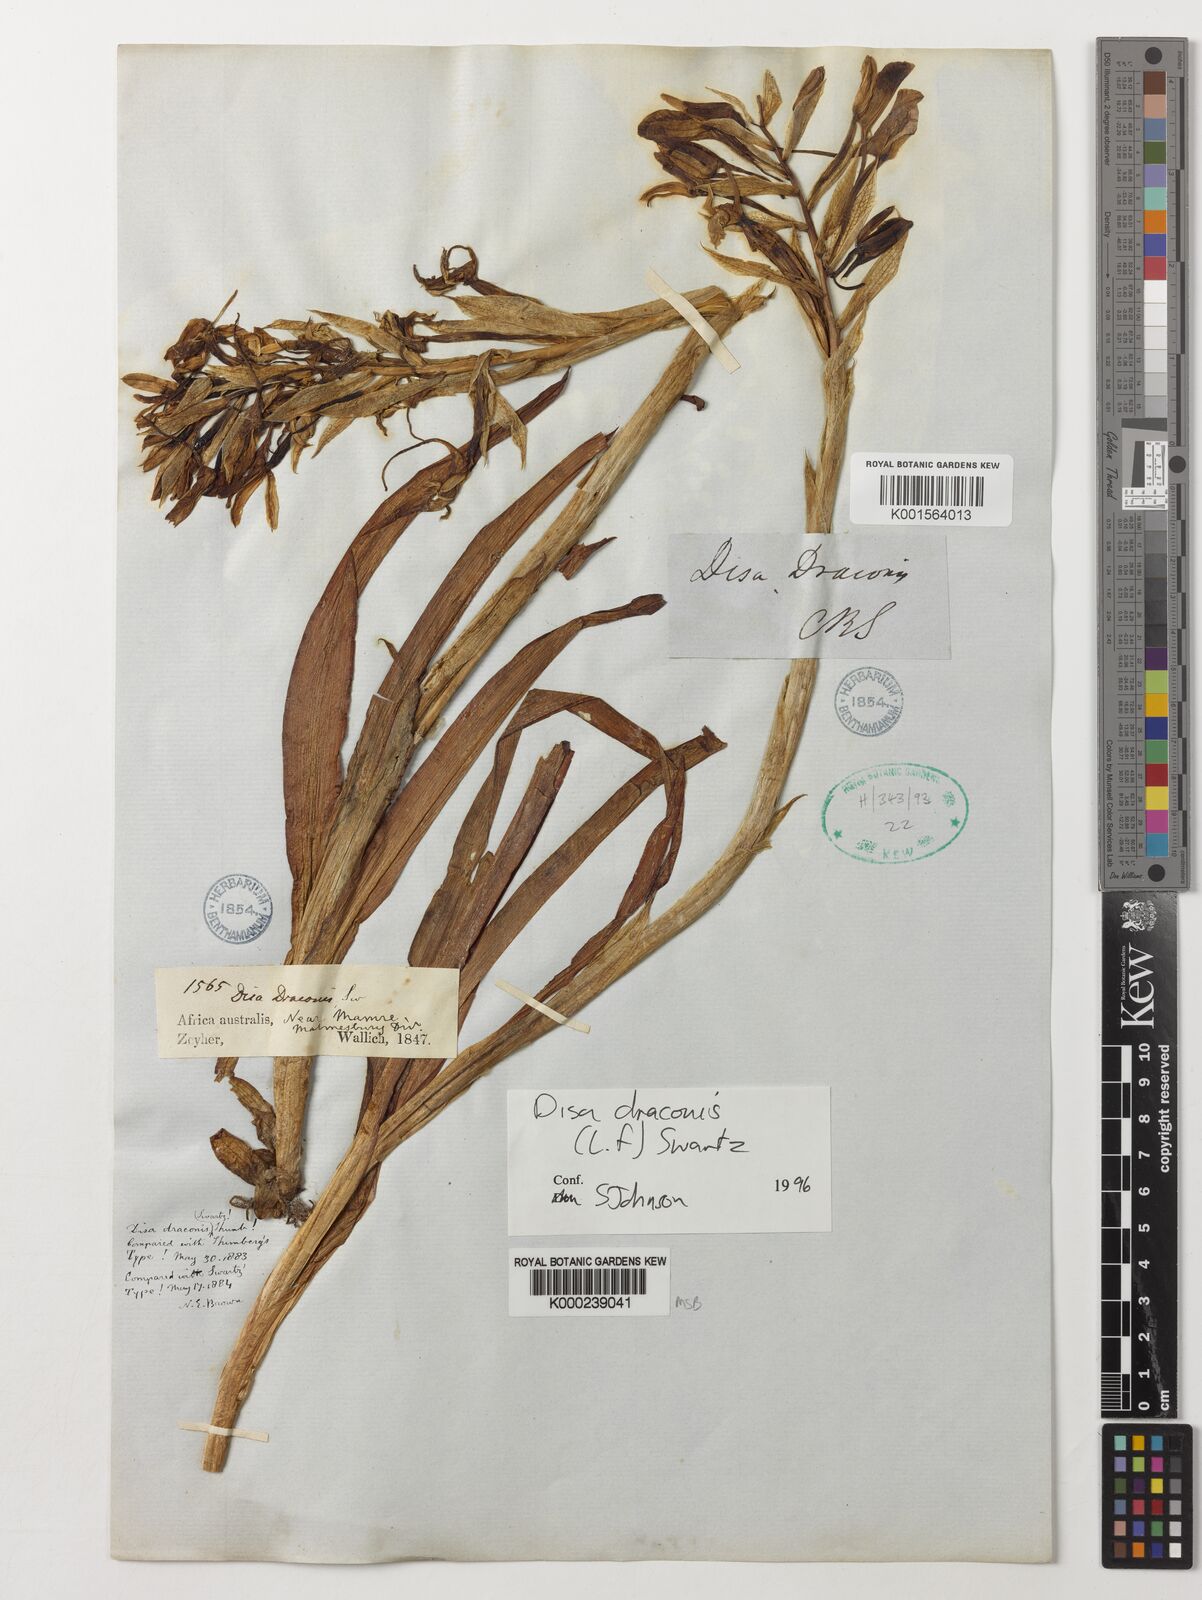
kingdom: Plantae
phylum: Tracheophyta
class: Liliopsida
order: Asparagales
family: Orchidaceae
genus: Disa
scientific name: Disa draconis
